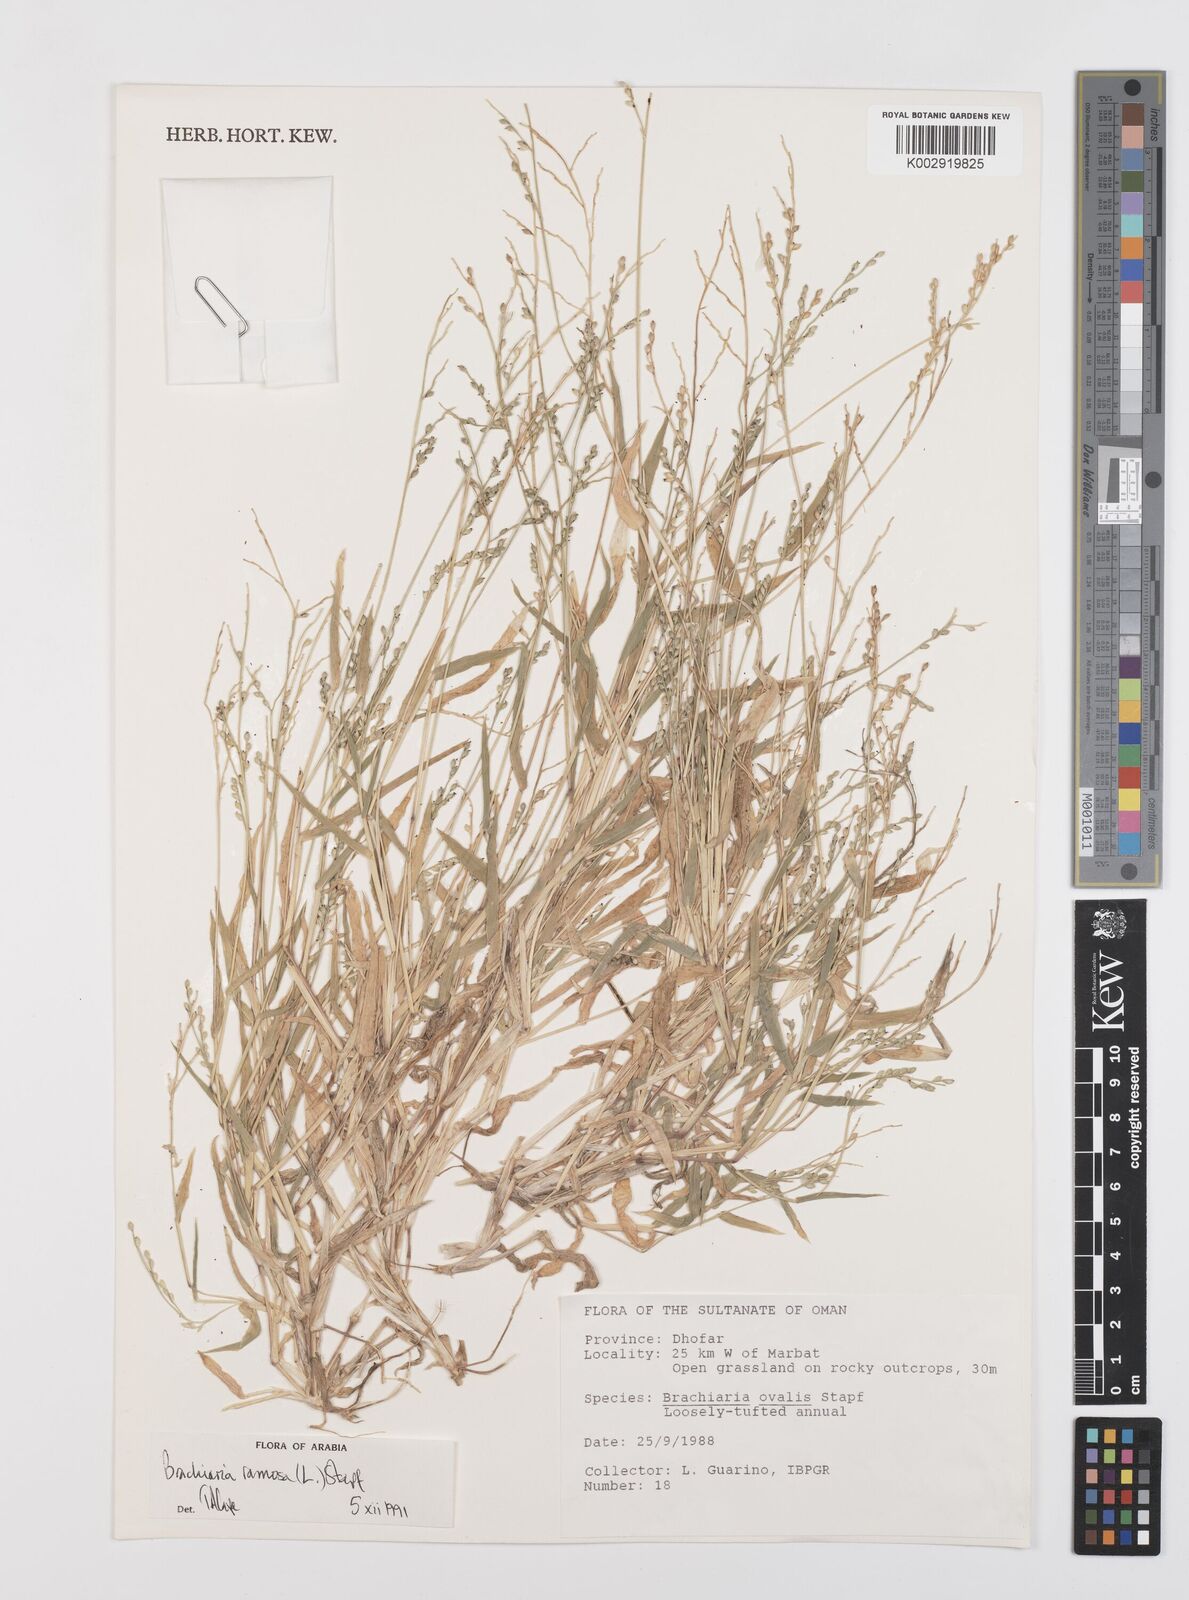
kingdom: Plantae
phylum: Tracheophyta
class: Liliopsida
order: Poales
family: Poaceae
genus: Urochloa
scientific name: Urochloa ramosa
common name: Browntop millet
